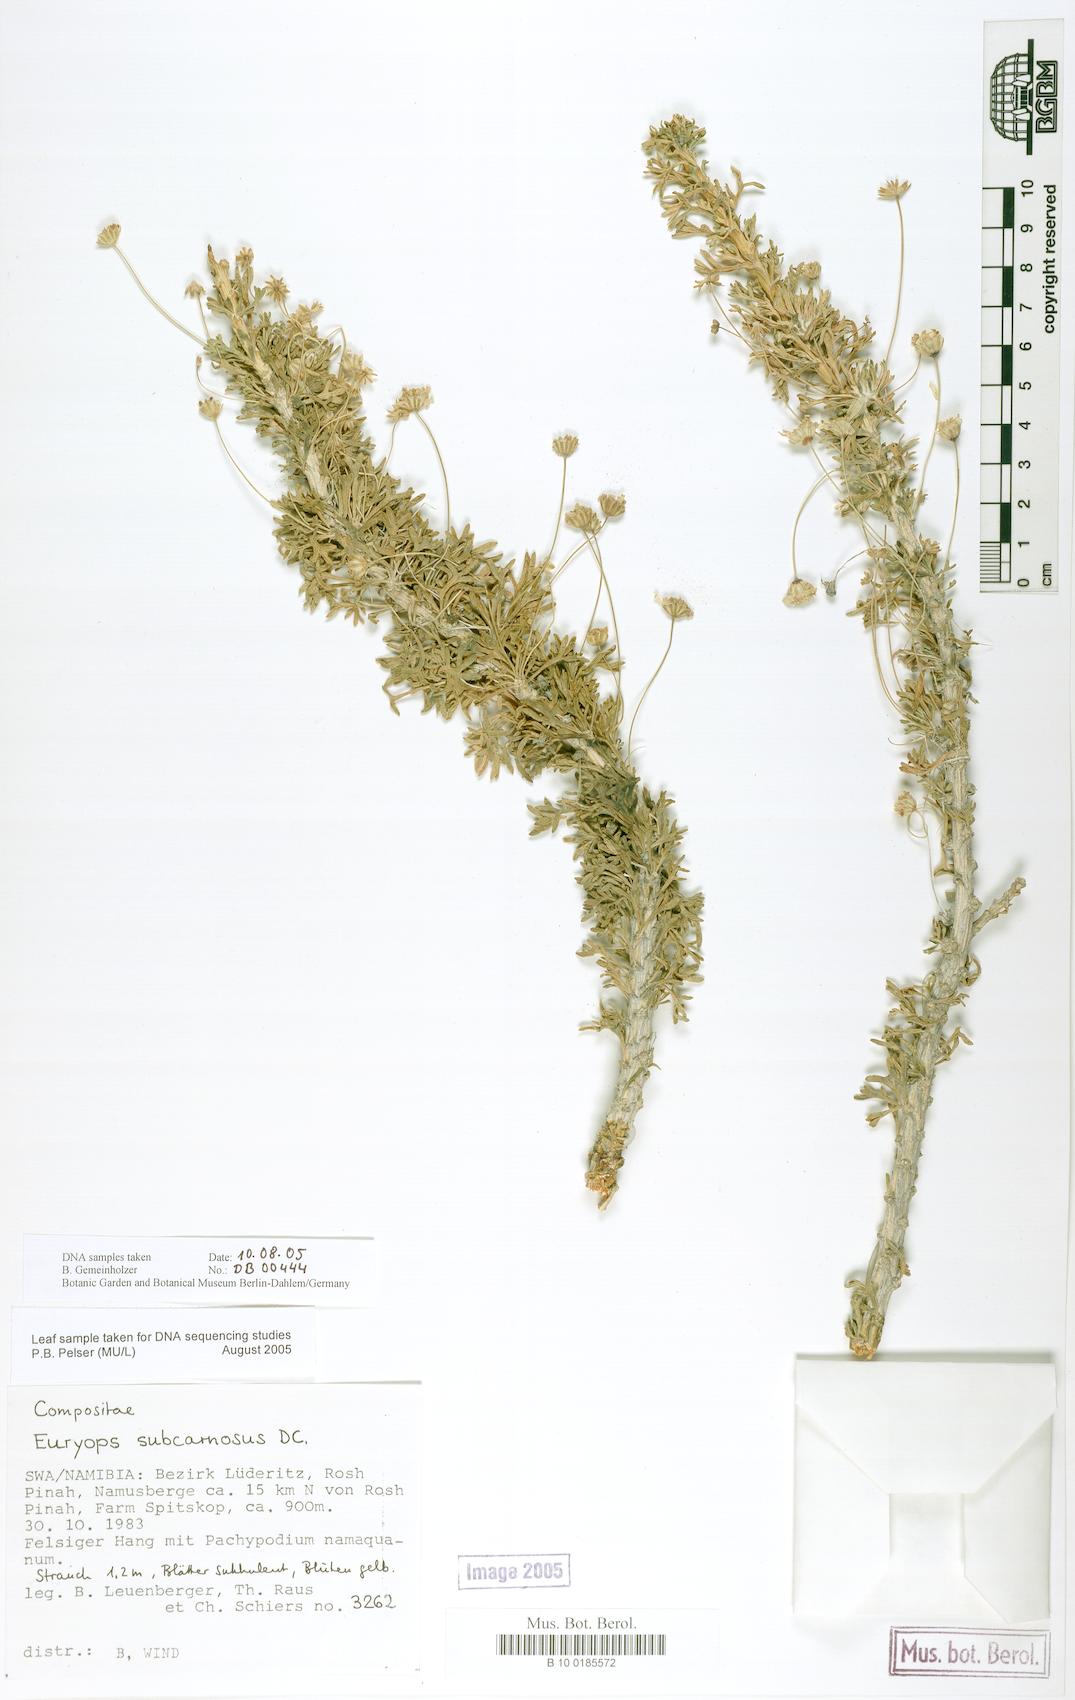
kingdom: Plantae
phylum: Tracheophyta
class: Magnoliopsida
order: Asterales
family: Asteraceae
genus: Euryops
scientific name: Euryops subcarnosus
